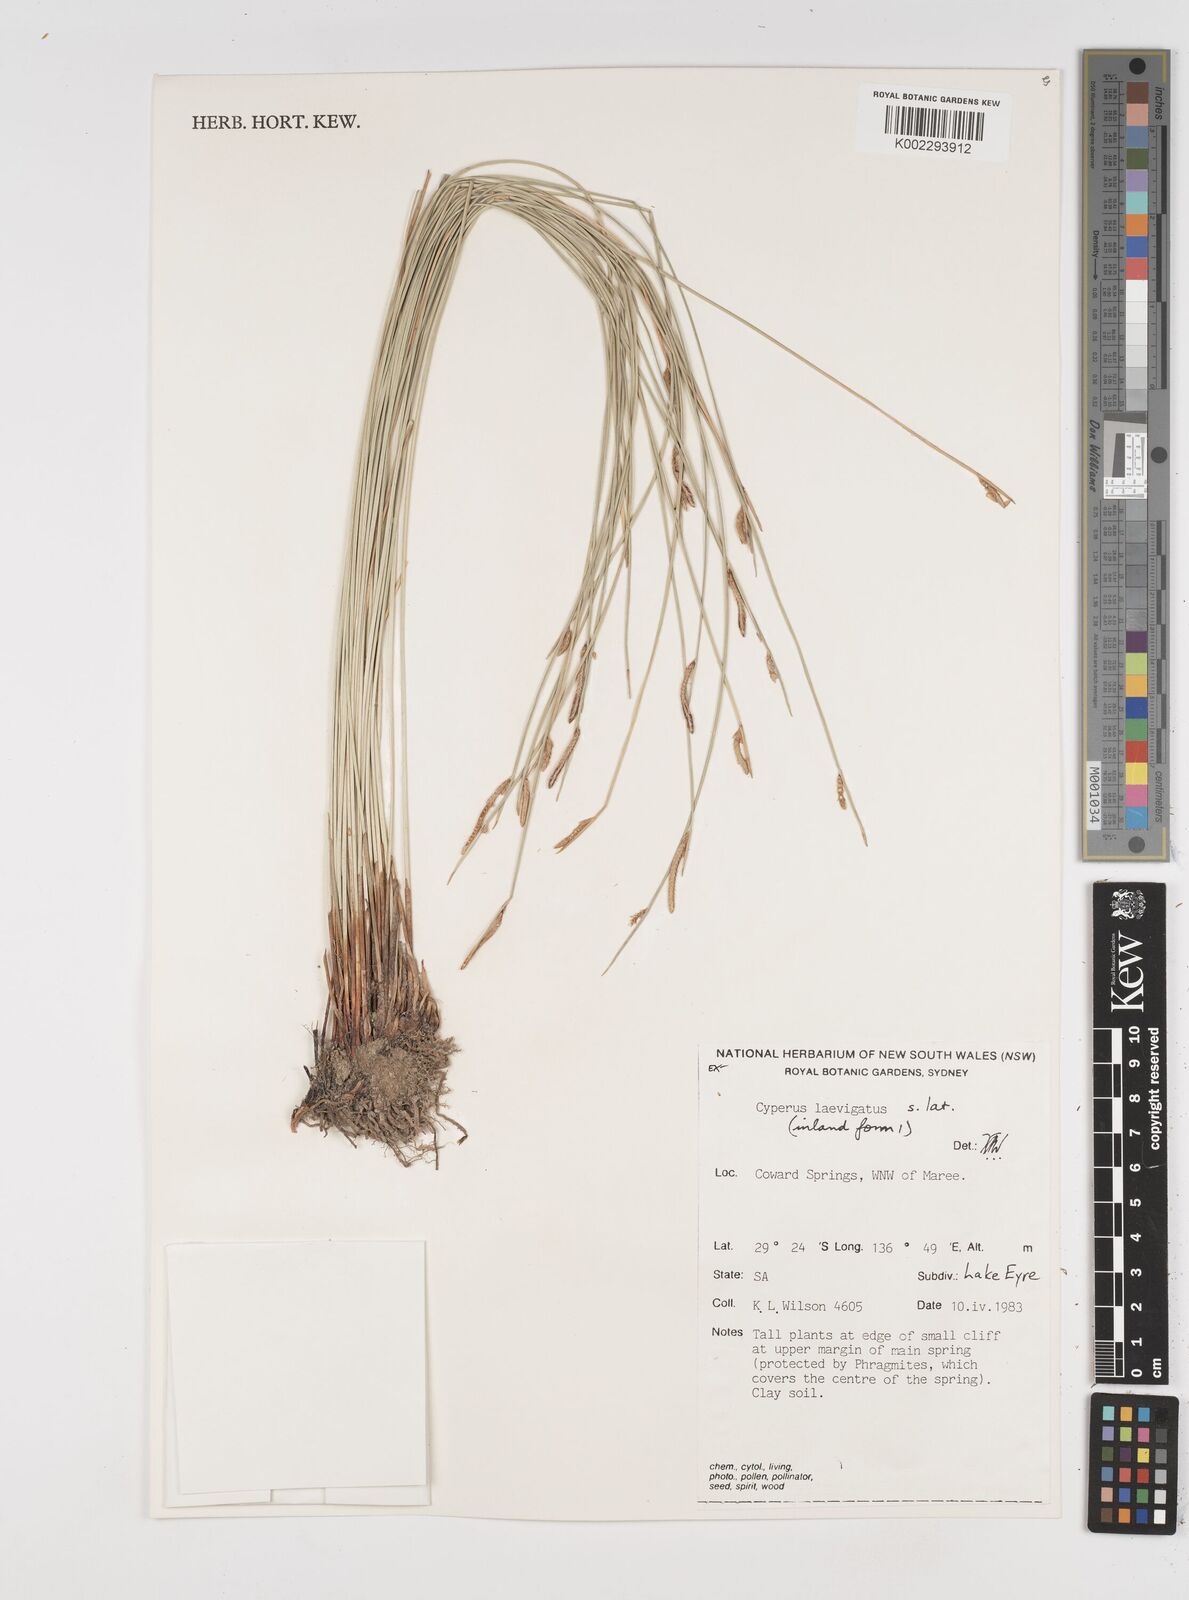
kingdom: Plantae
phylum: Tracheophyta
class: Liliopsida
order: Poales
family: Cyperaceae
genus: Cyperus
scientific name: Cyperus laevigatus
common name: Smooth flat sedge
